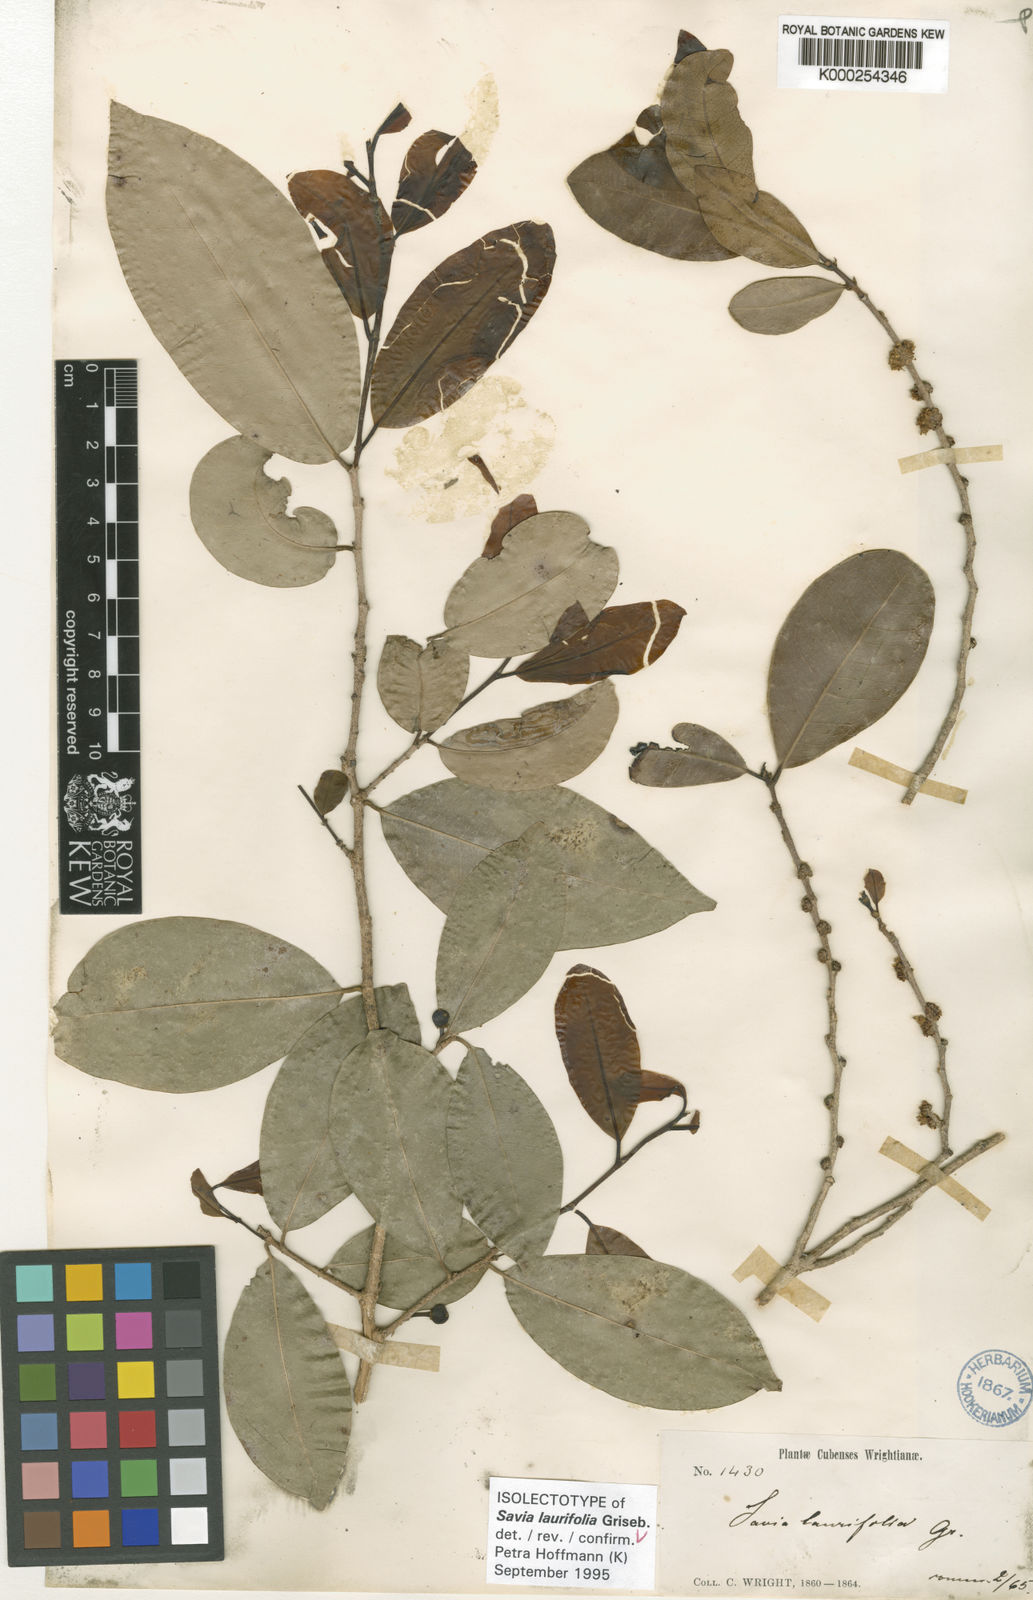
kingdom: Plantae
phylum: Tracheophyta
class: Magnoliopsida
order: Malpighiales
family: Phyllanthaceae
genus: Heterosavia
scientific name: Heterosavia laurifolia
